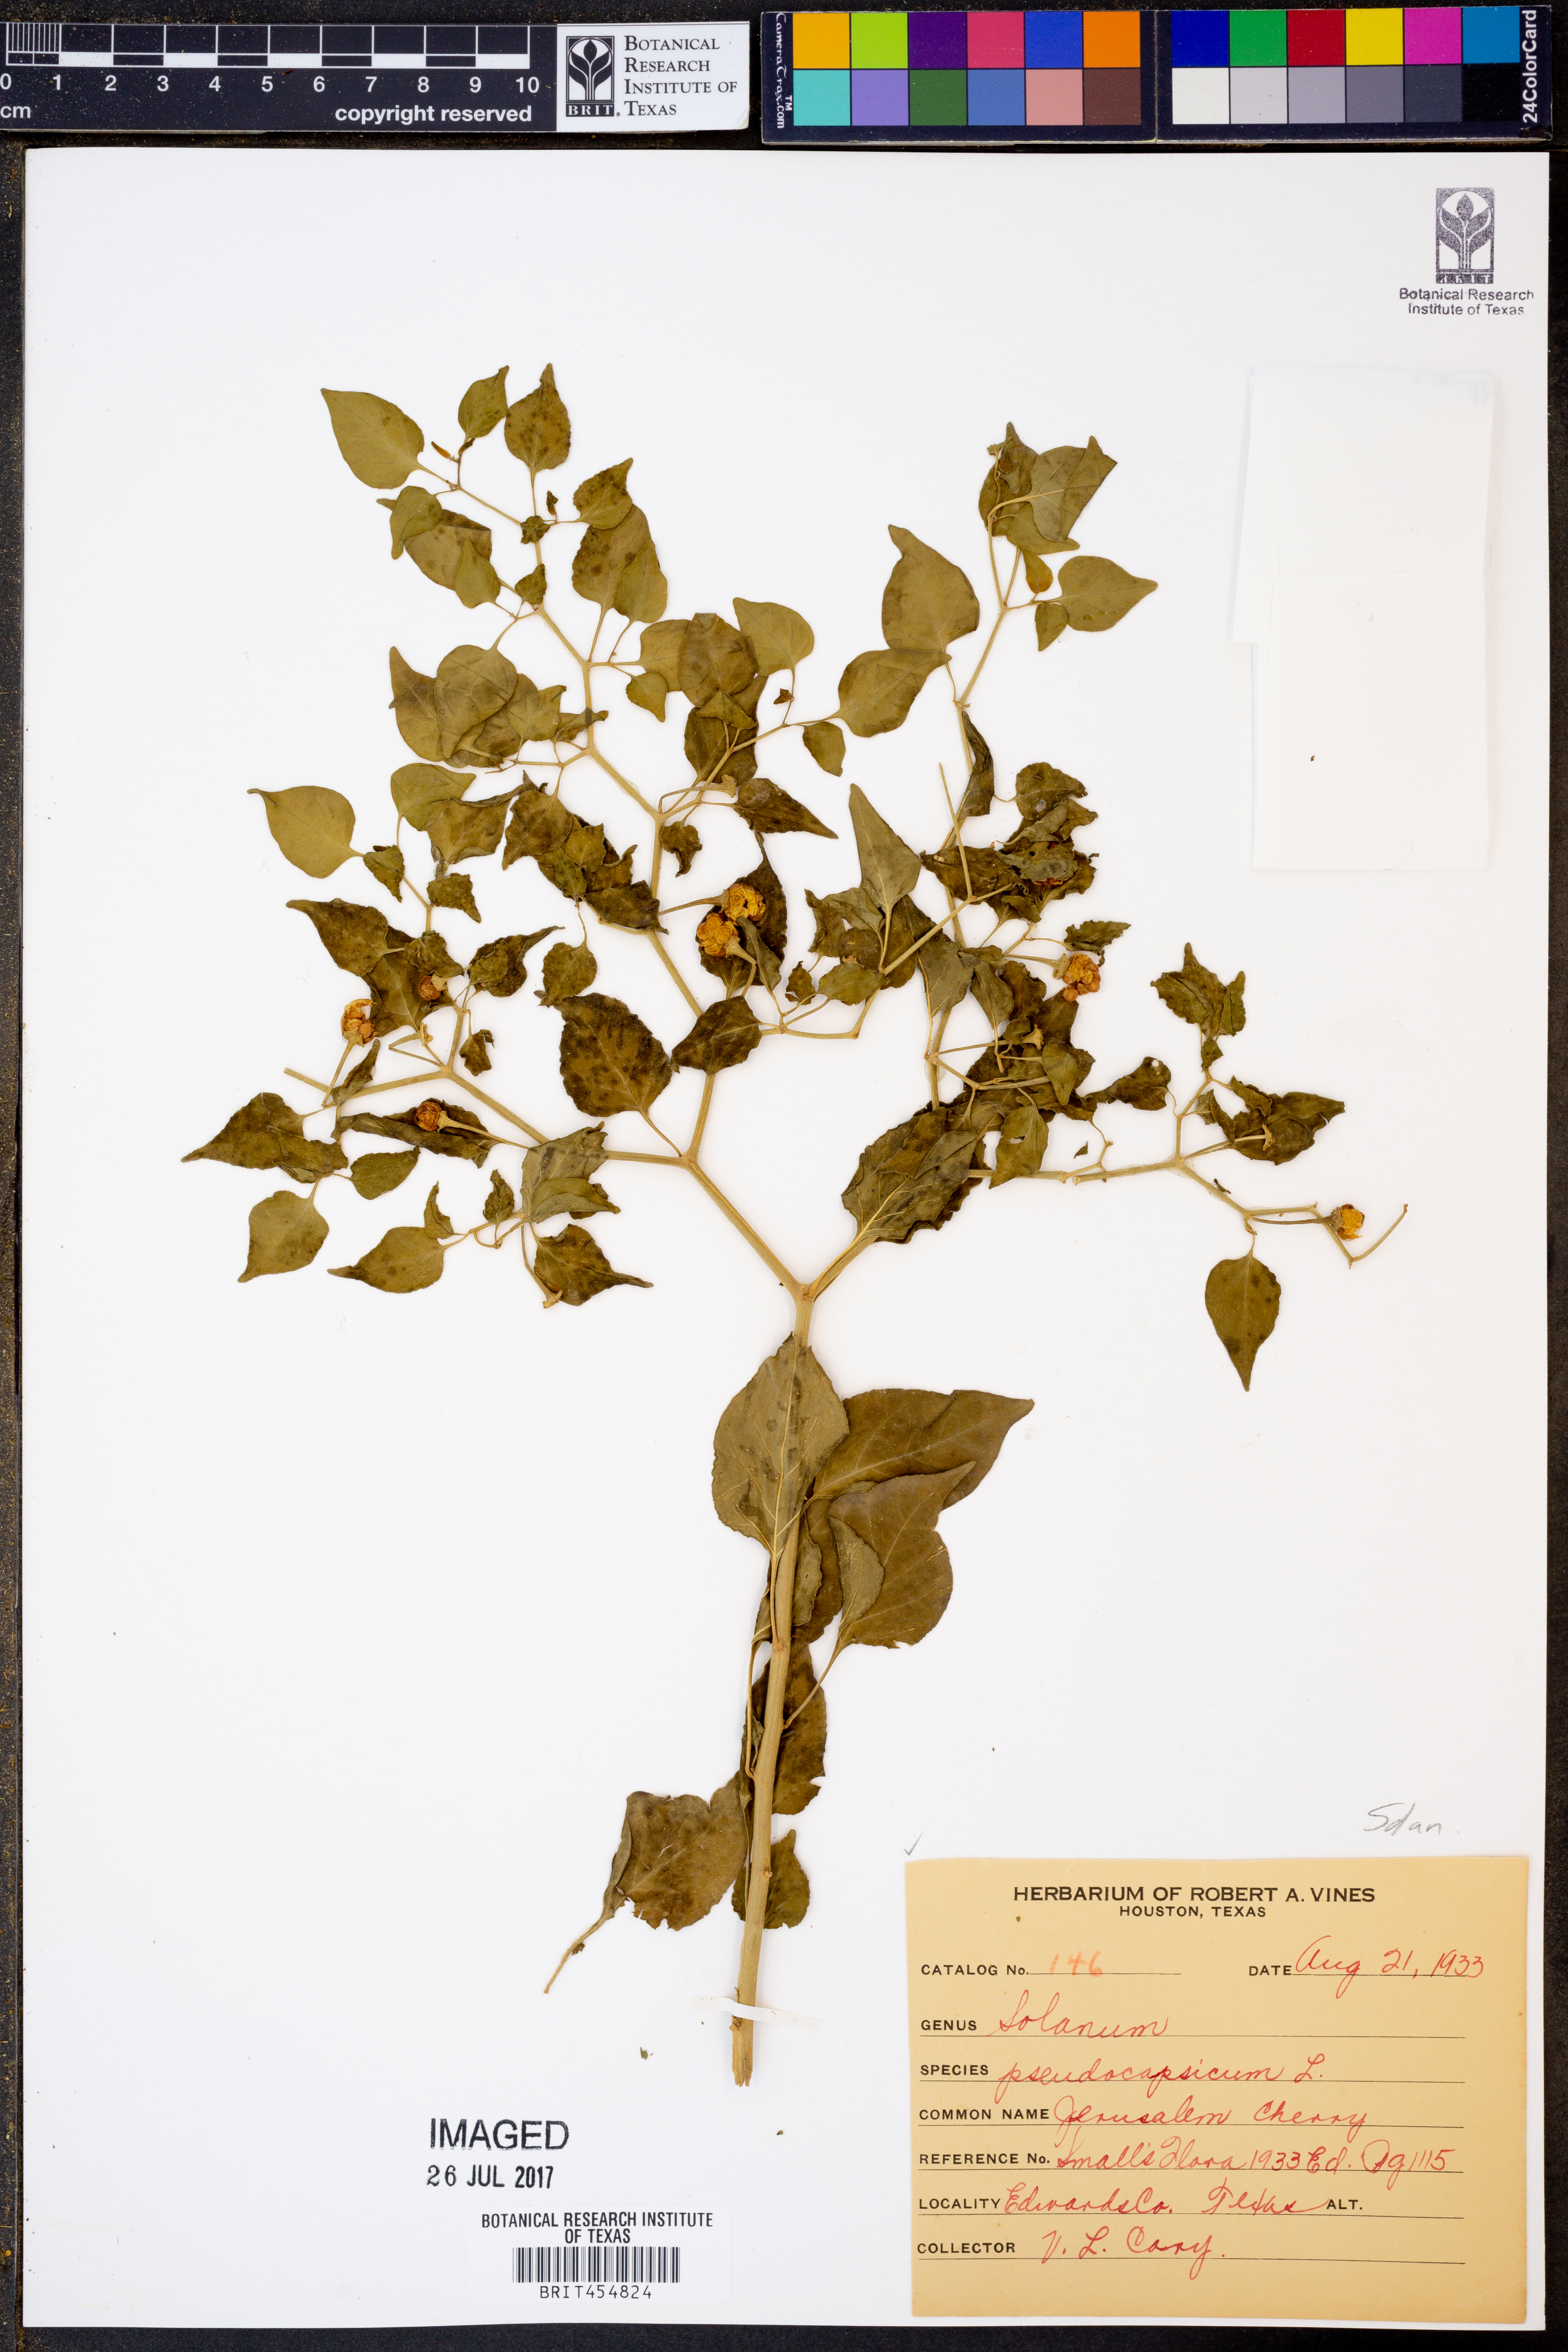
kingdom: Plantae
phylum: Tracheophyta
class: Magnoliopsida
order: Solanales
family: Solanaceae
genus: Solanum
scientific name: Solanum pseudocapsicum
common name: Jerusalem cherry
